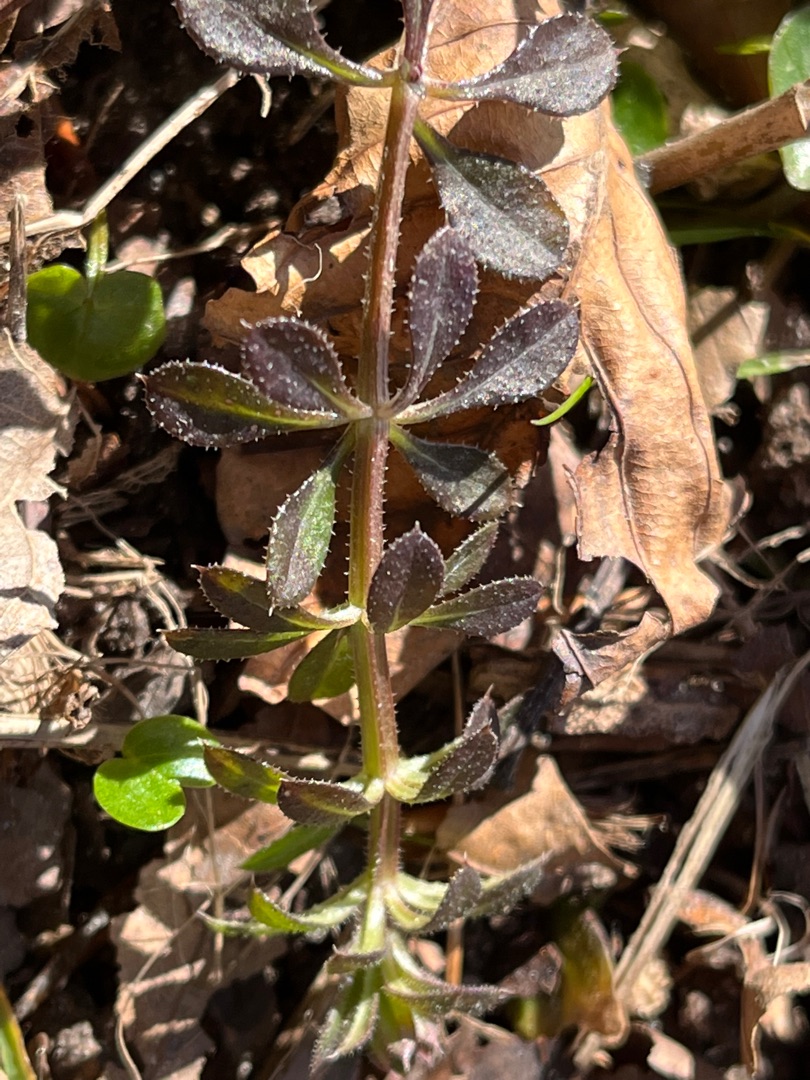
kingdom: Plantae
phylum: Tracheophyta
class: Magnoliopsida
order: Gentianales
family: Rubiaceae
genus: Galium
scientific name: Galium aparine
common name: Burre-snerre
